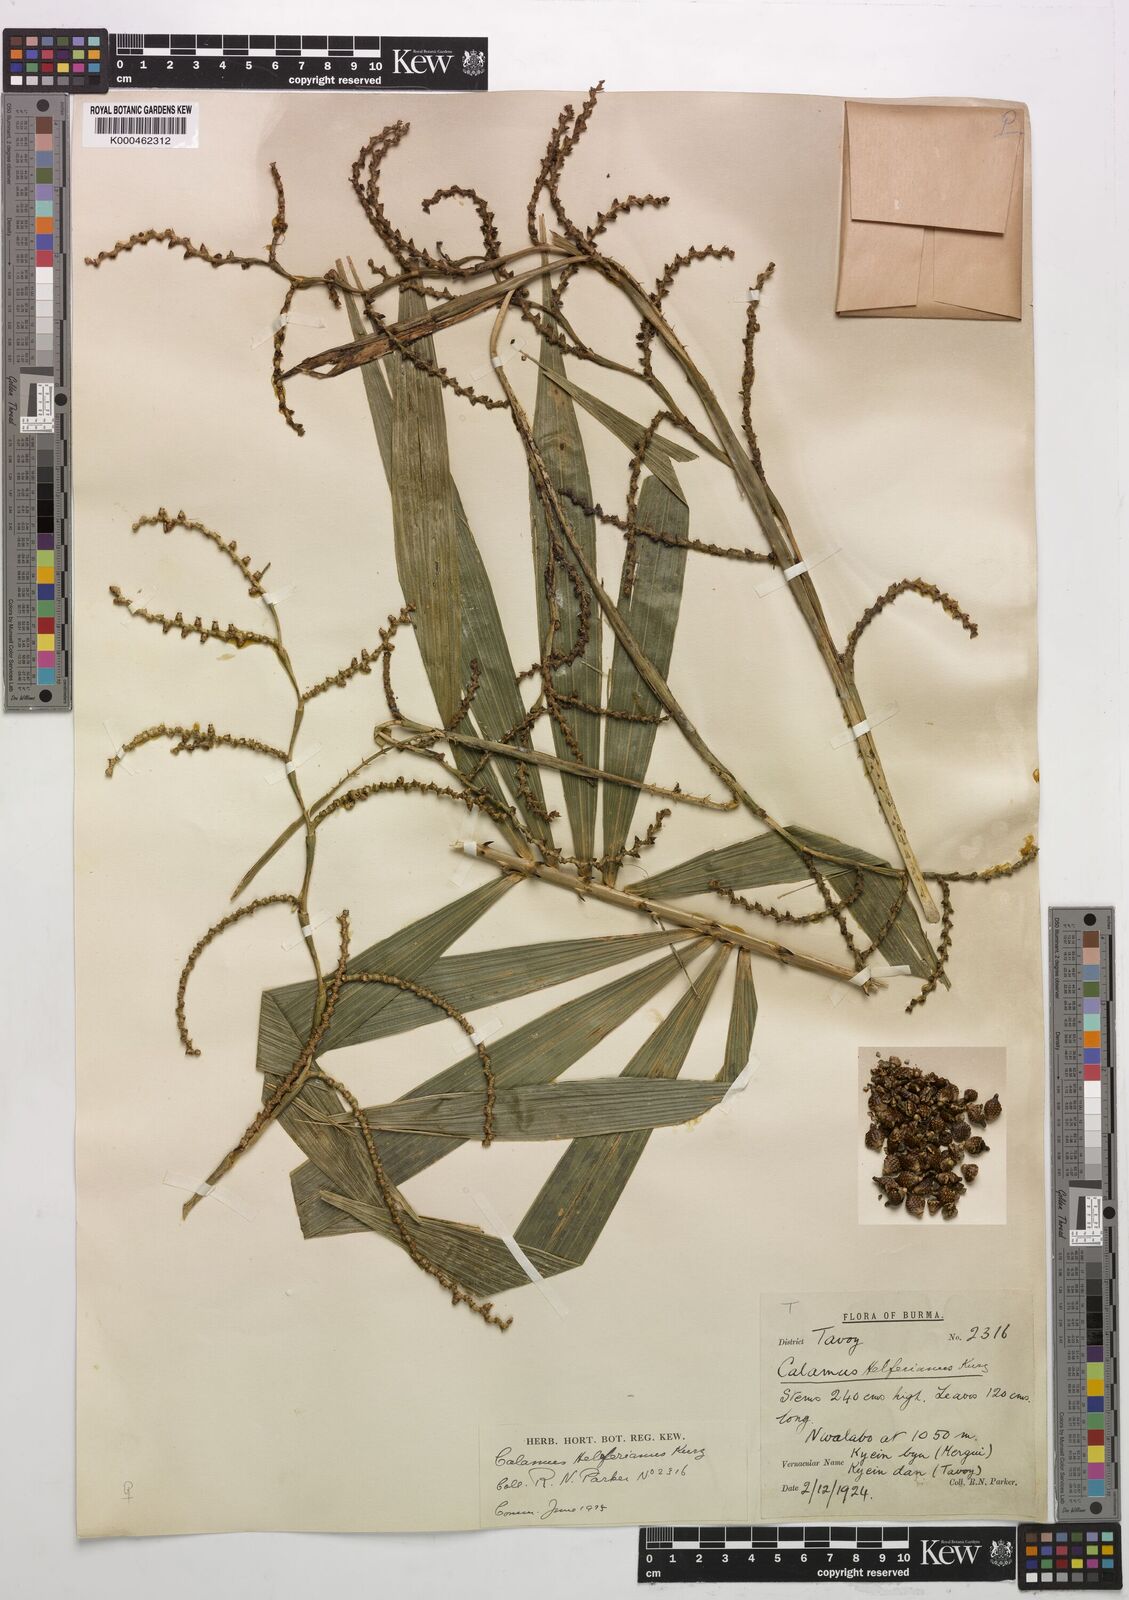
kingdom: Plantae
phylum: Tracheophyta
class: Liliopsida
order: Arecales
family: Arecaceae
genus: Calamus
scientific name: Calamus helferianus
